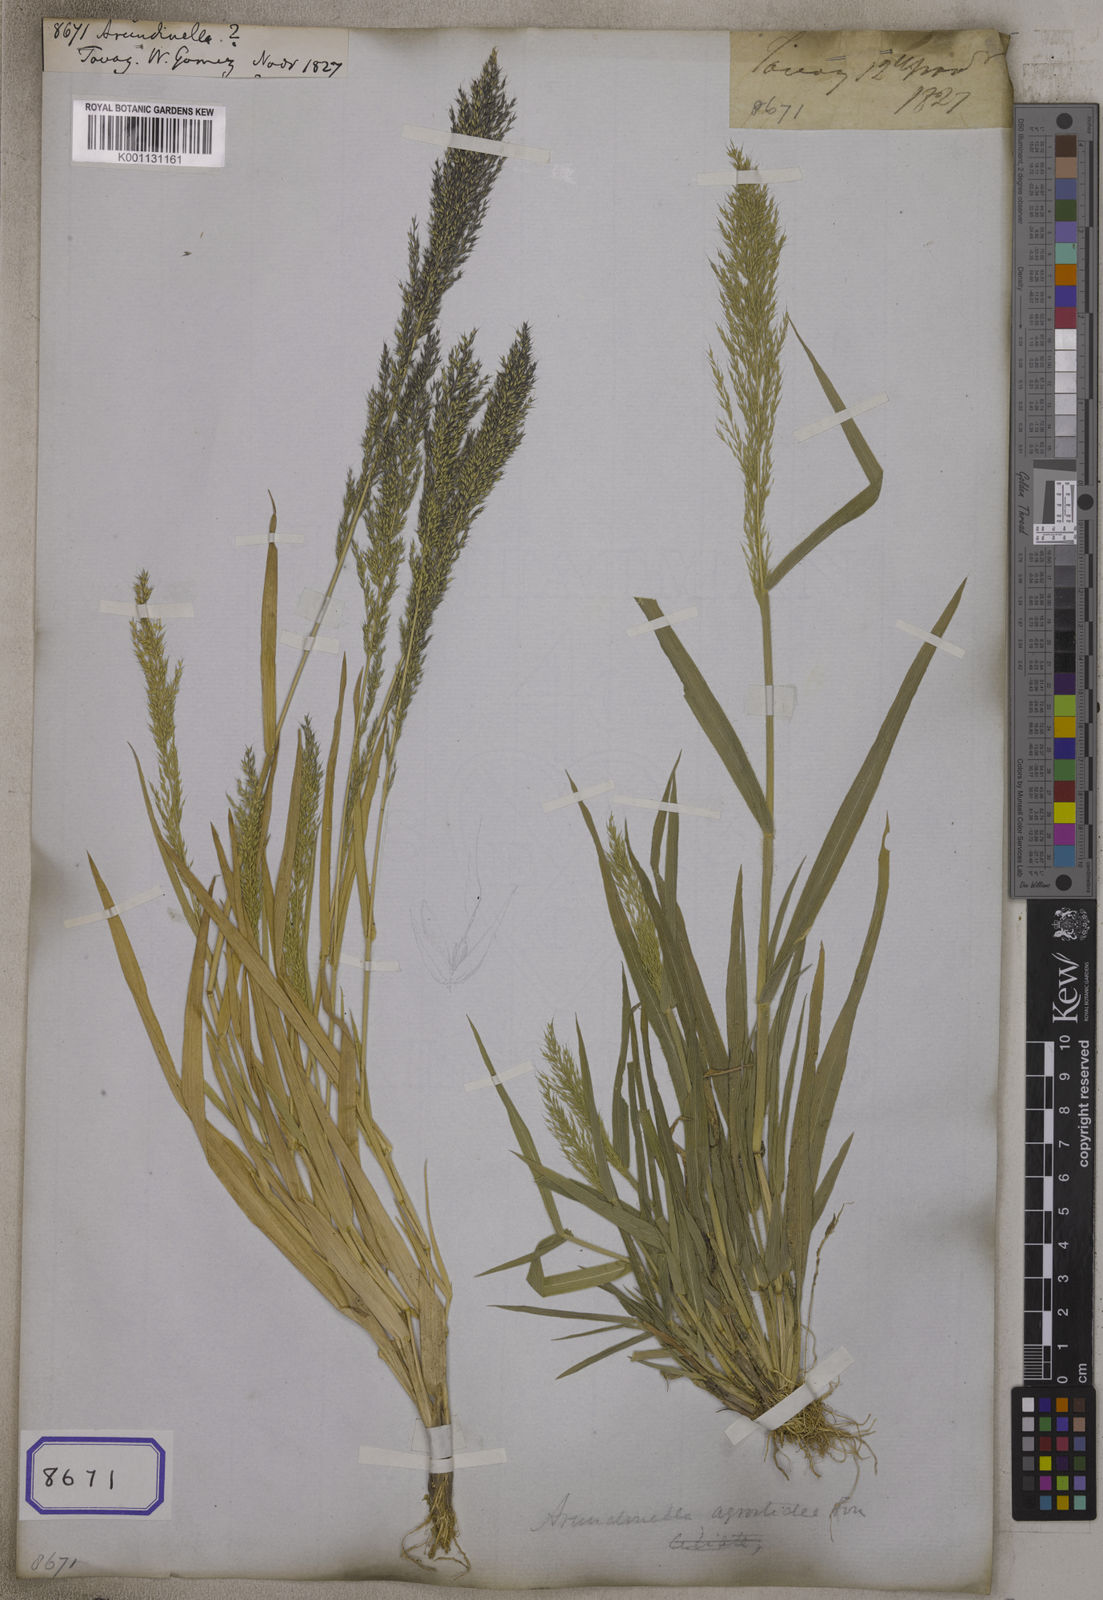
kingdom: Plantae
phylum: Tracheophyta
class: Liliopsida
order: Poales
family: Poaceae
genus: Arundinella
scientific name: Arundinella
